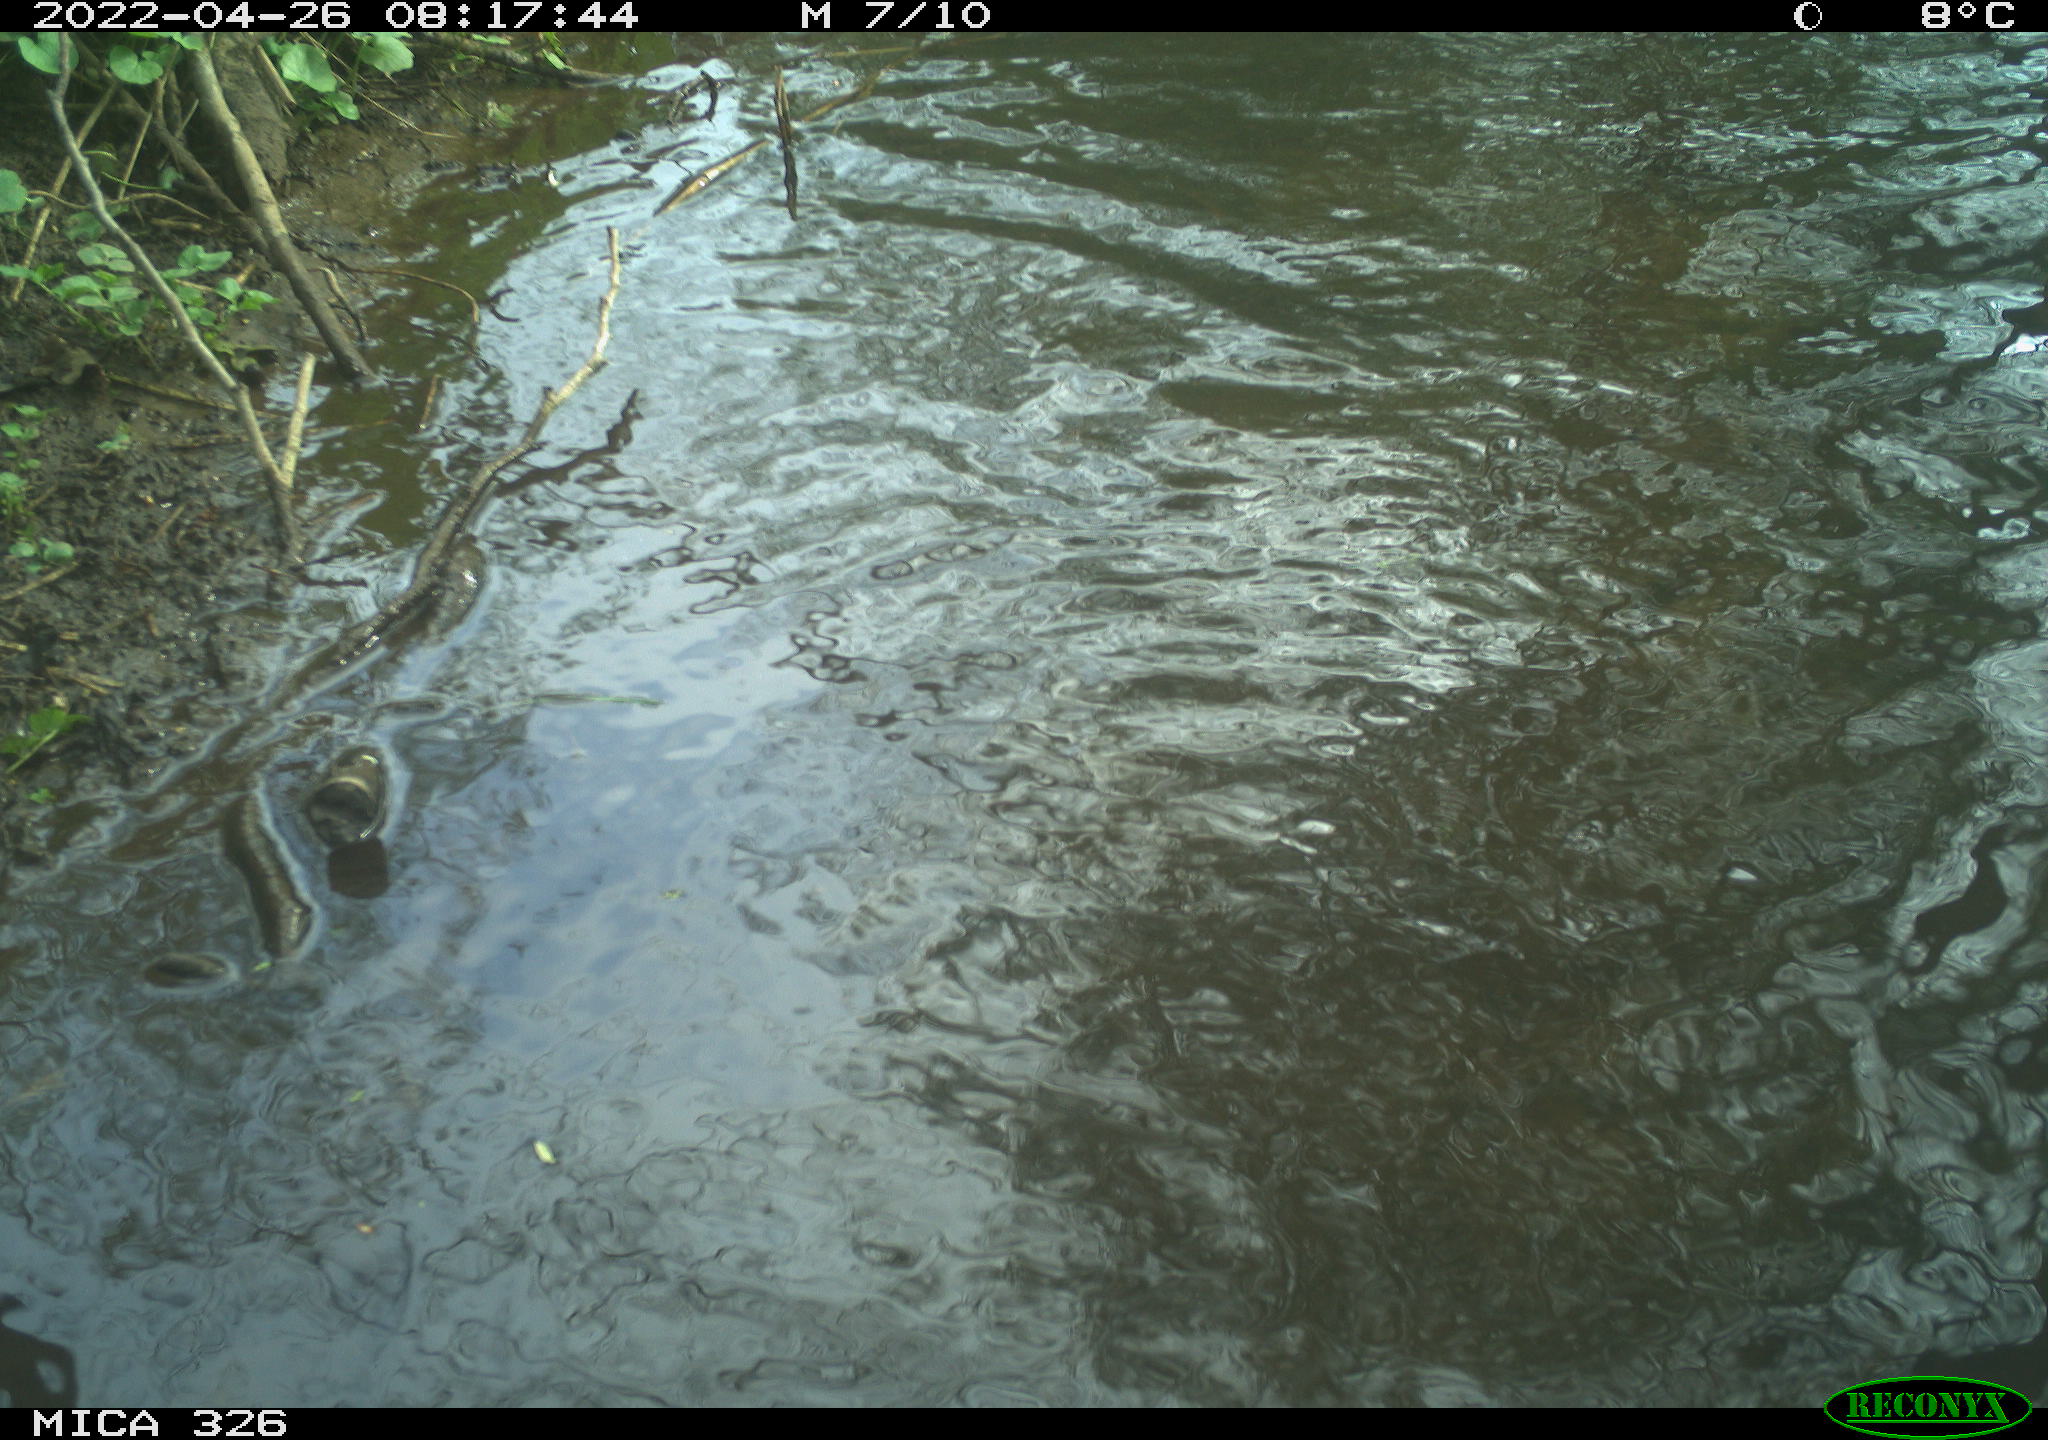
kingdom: Animalia
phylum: Chordata
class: Mammalia
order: Rodentia
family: Cricetidae
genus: Ondatra
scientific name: Ondatra zibethicus
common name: Muskrat
